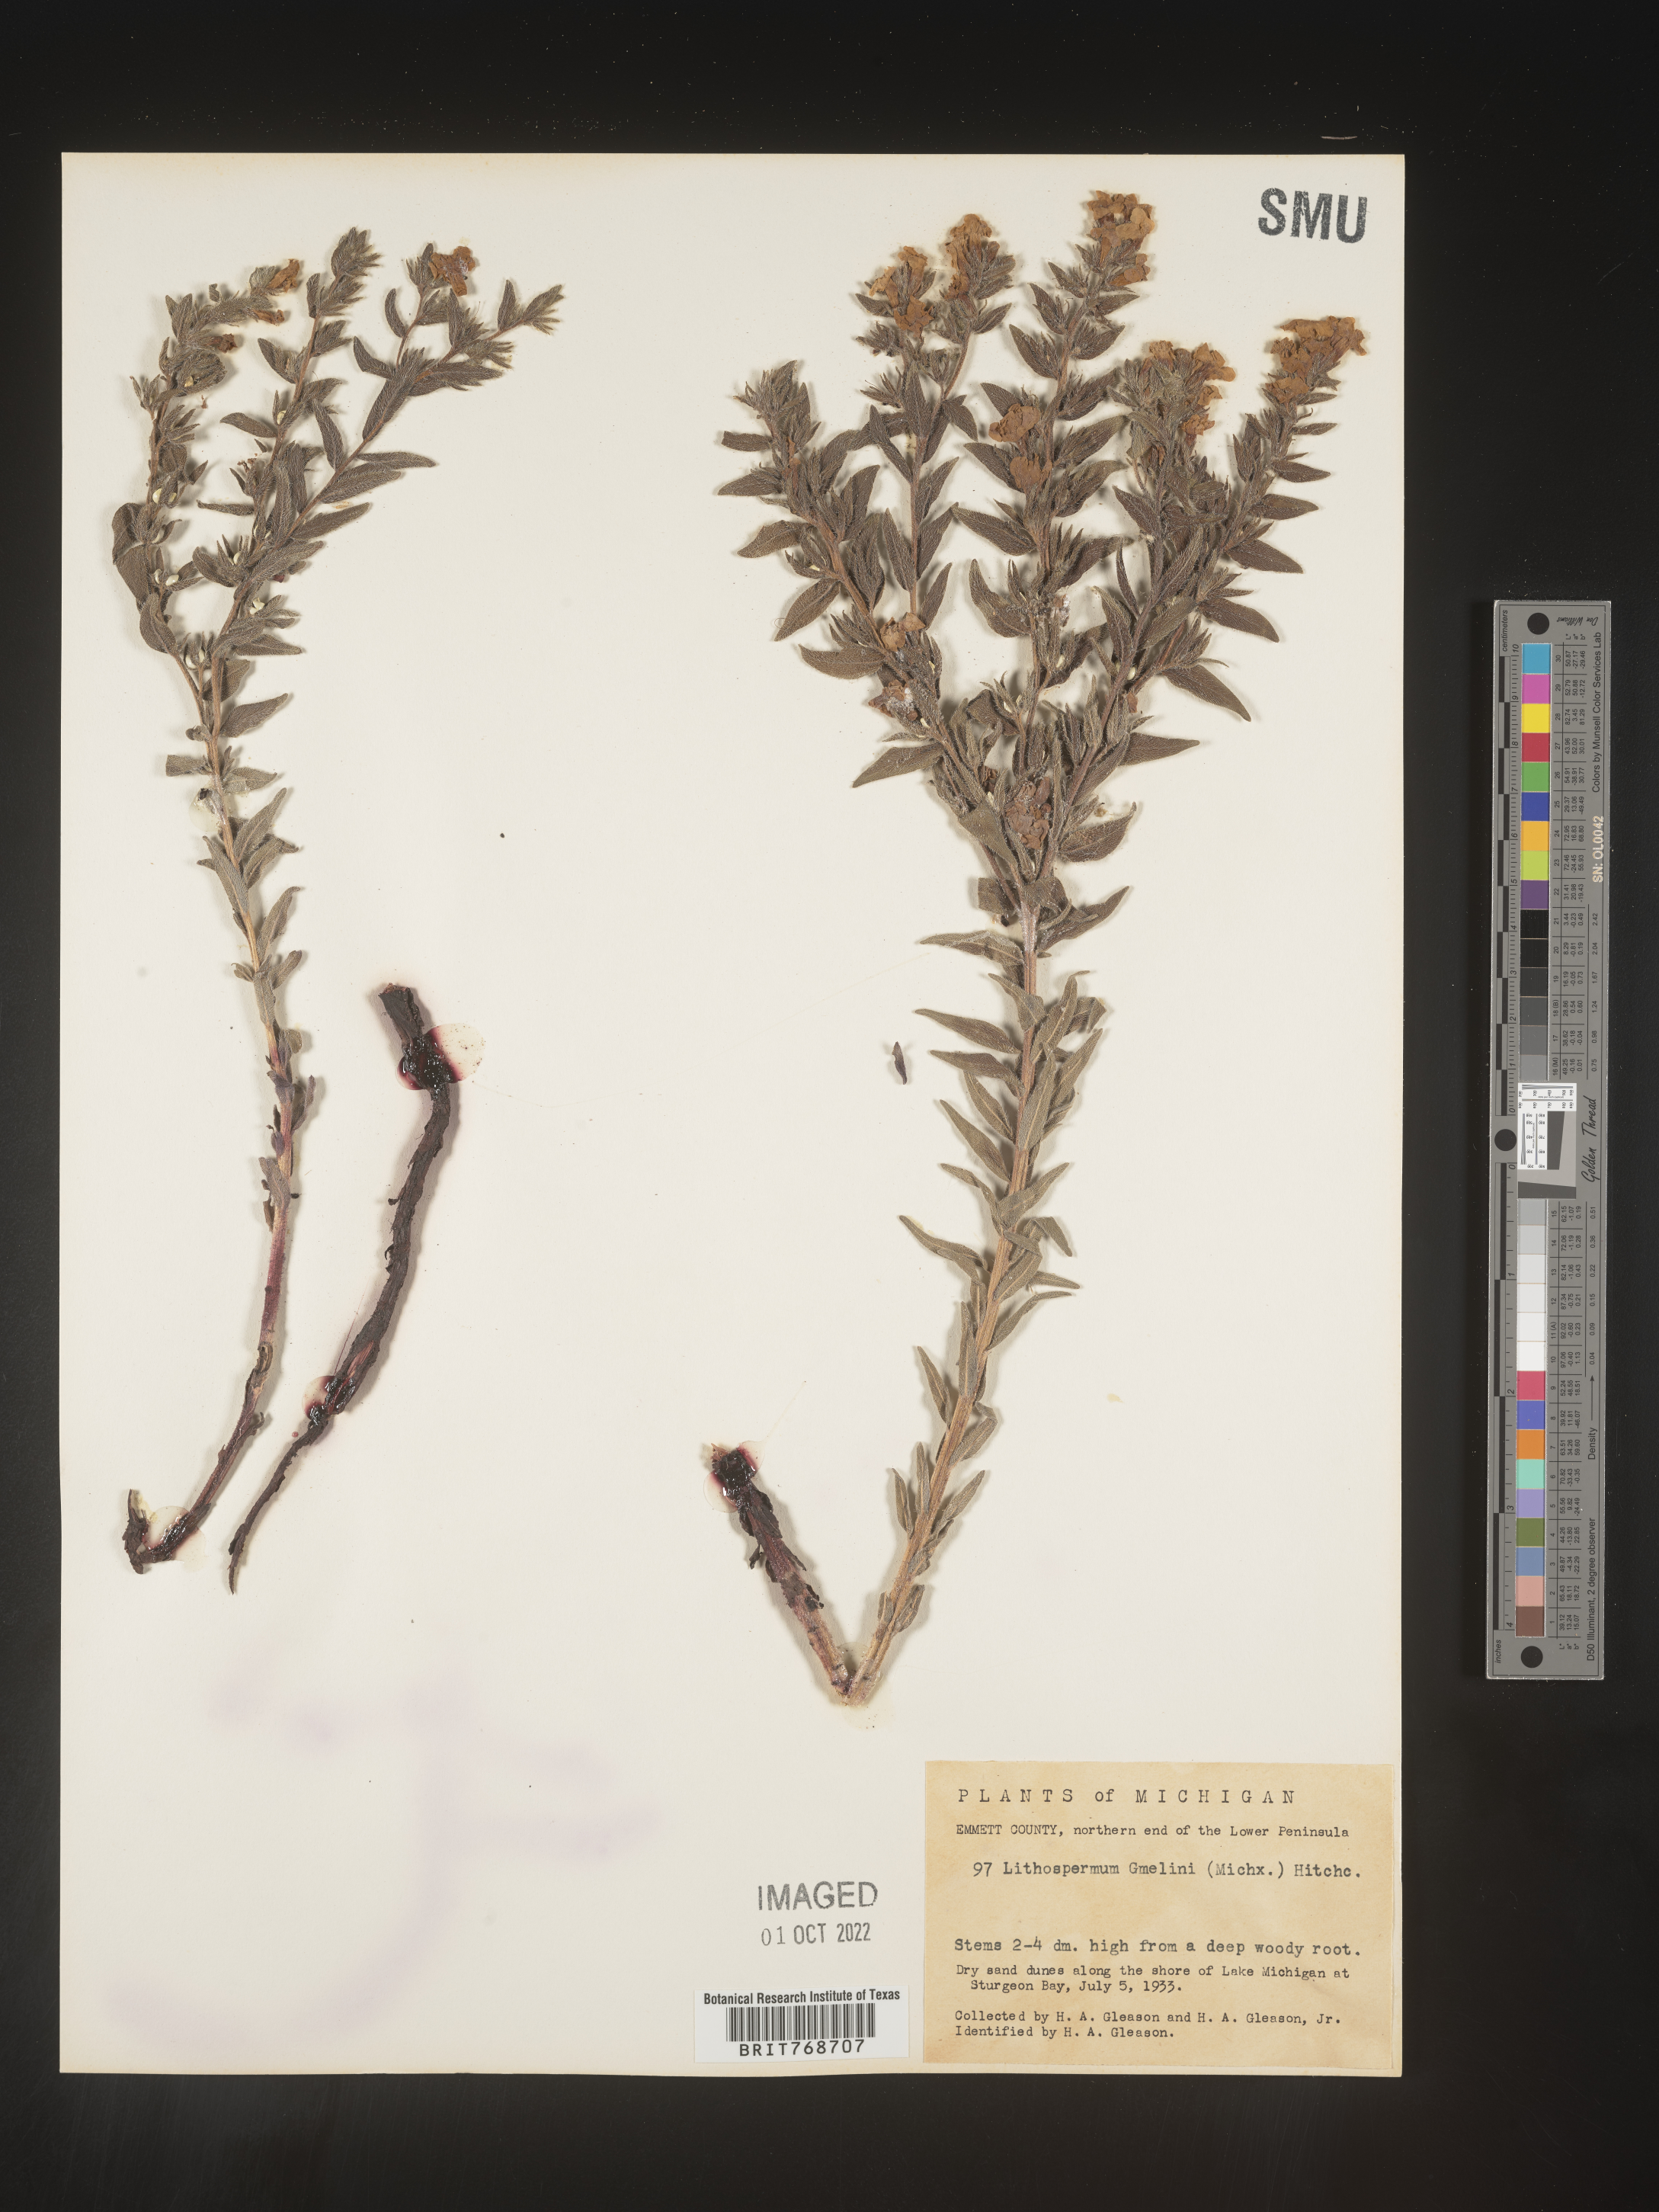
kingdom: Plantae
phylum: Tracheophyta
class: Magnoliopsida
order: Boraginales
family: Boraginaceae
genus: Lithospermum
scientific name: Lithospermum caroliniense
